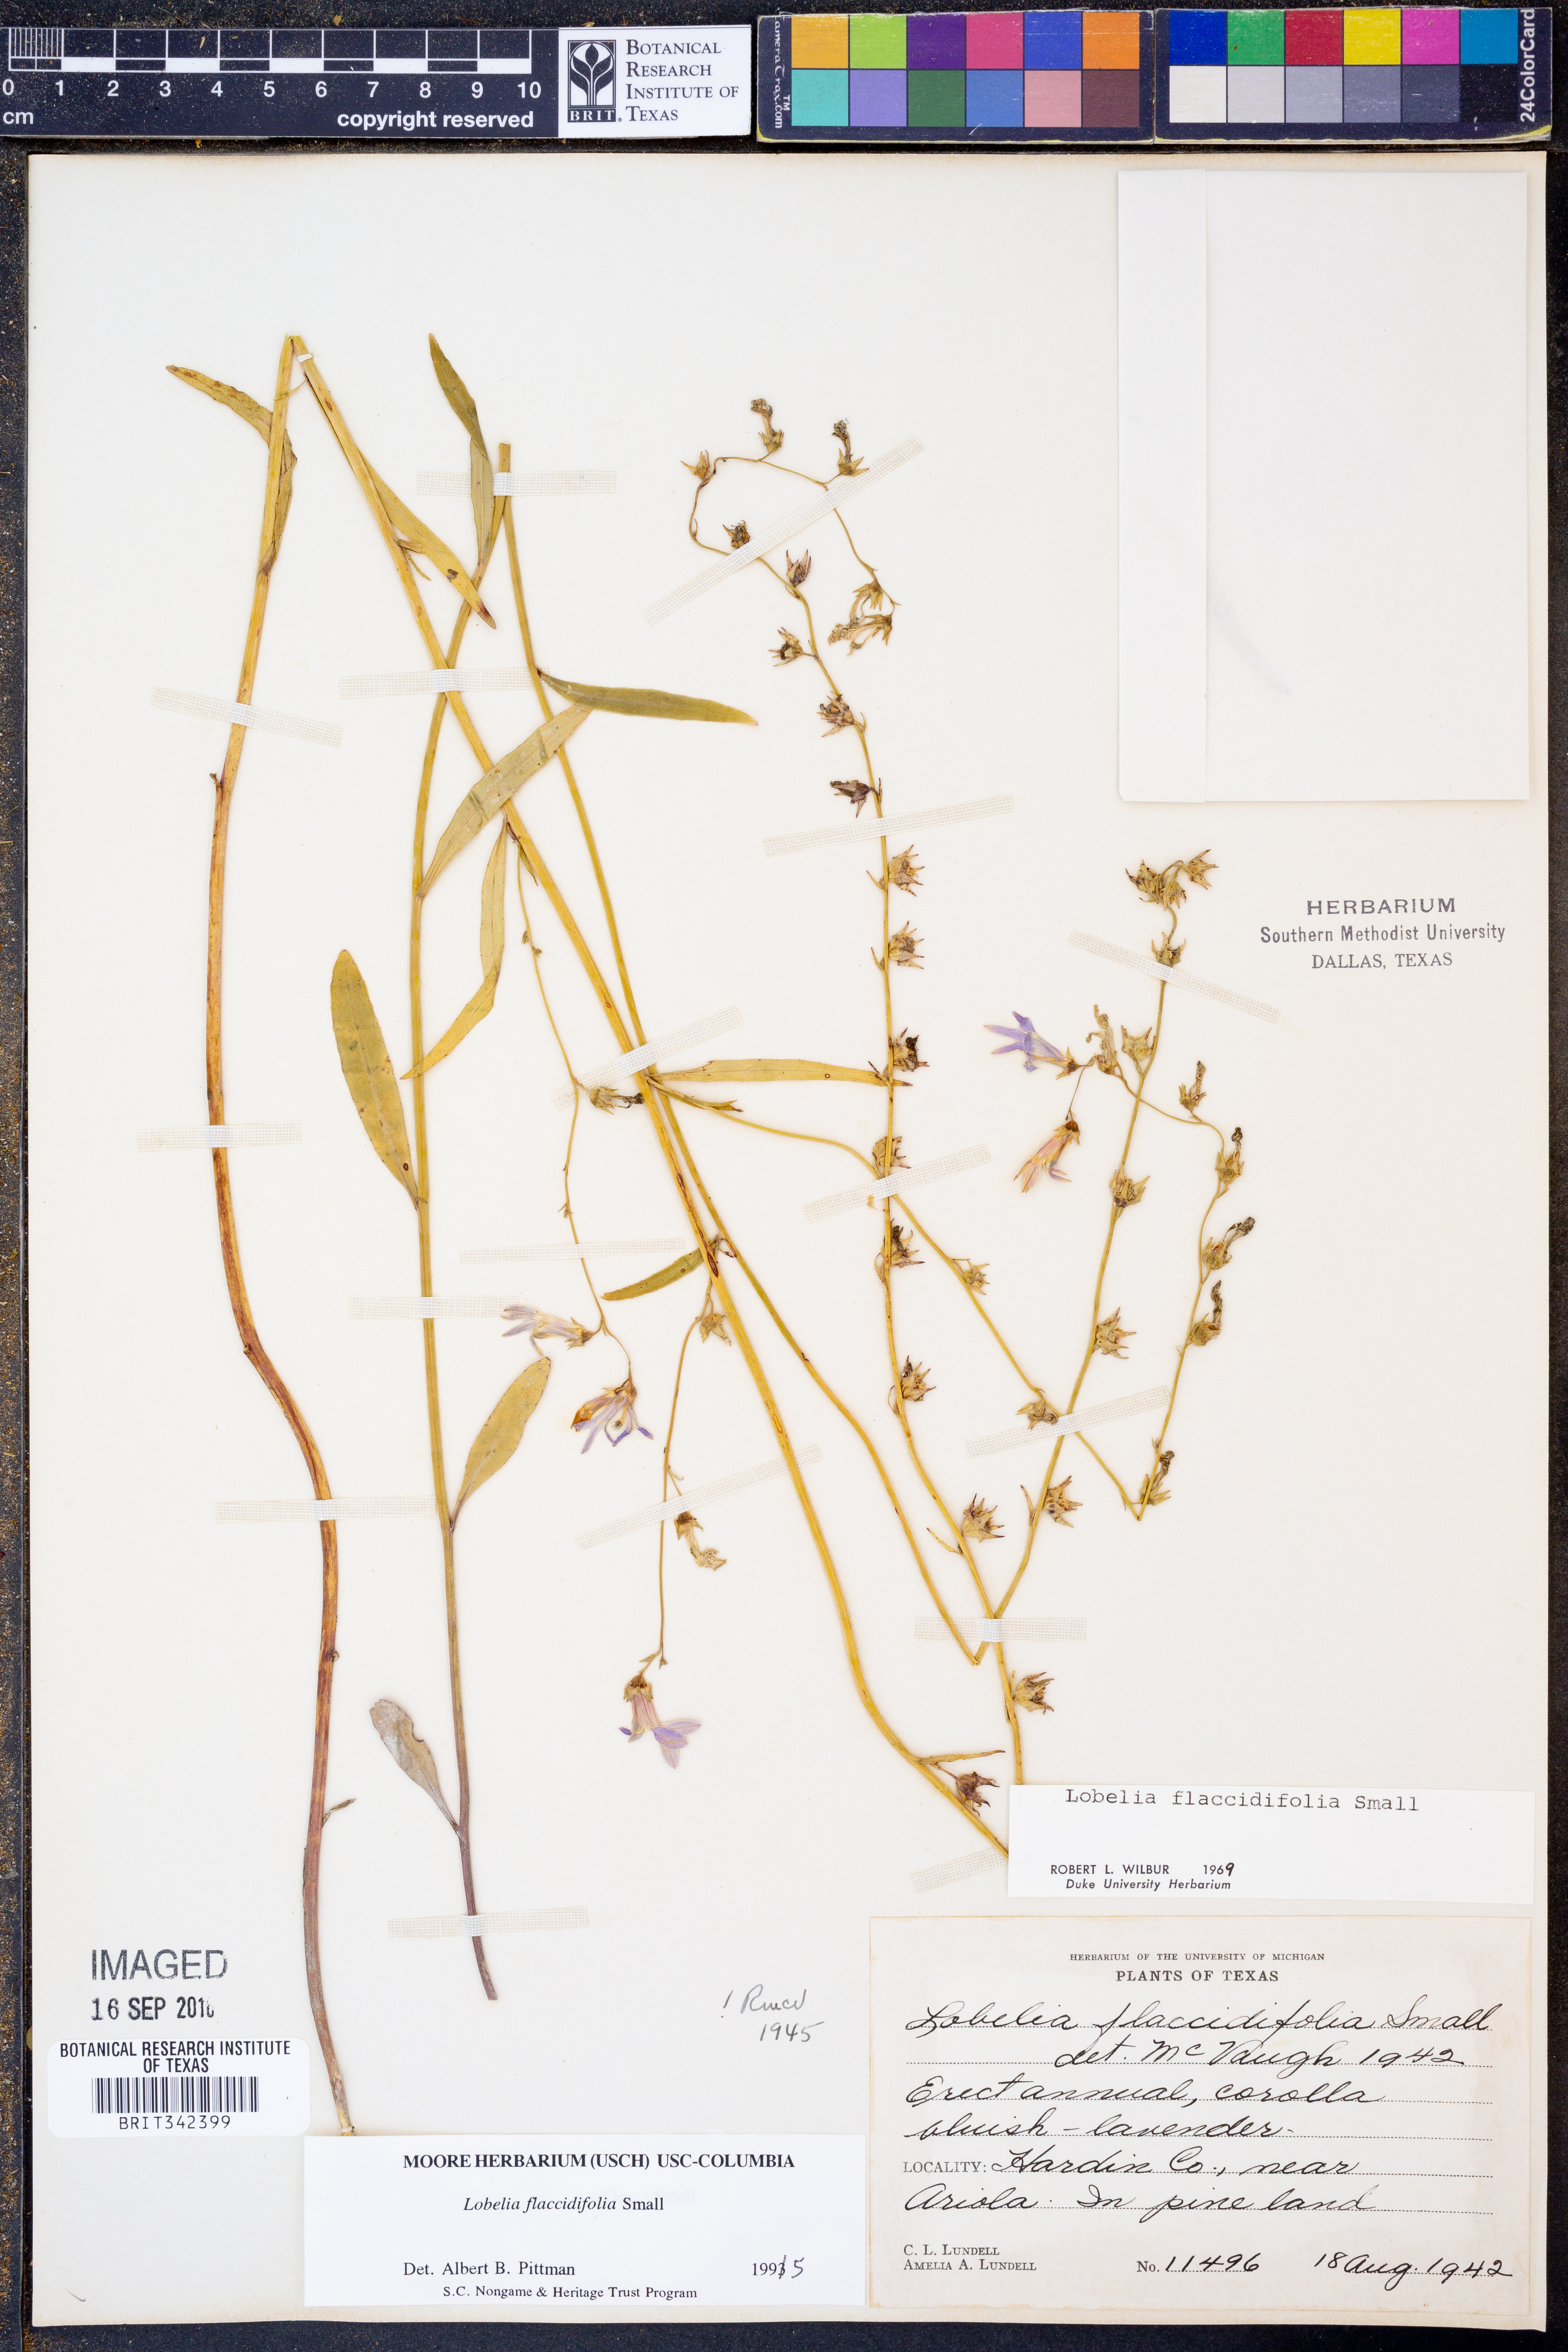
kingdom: Plantae
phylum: Tracheophyta
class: Magnoliopsida
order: Asterales
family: Campanulaceae
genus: Lobelia
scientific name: Lobelia flaccidifolia
